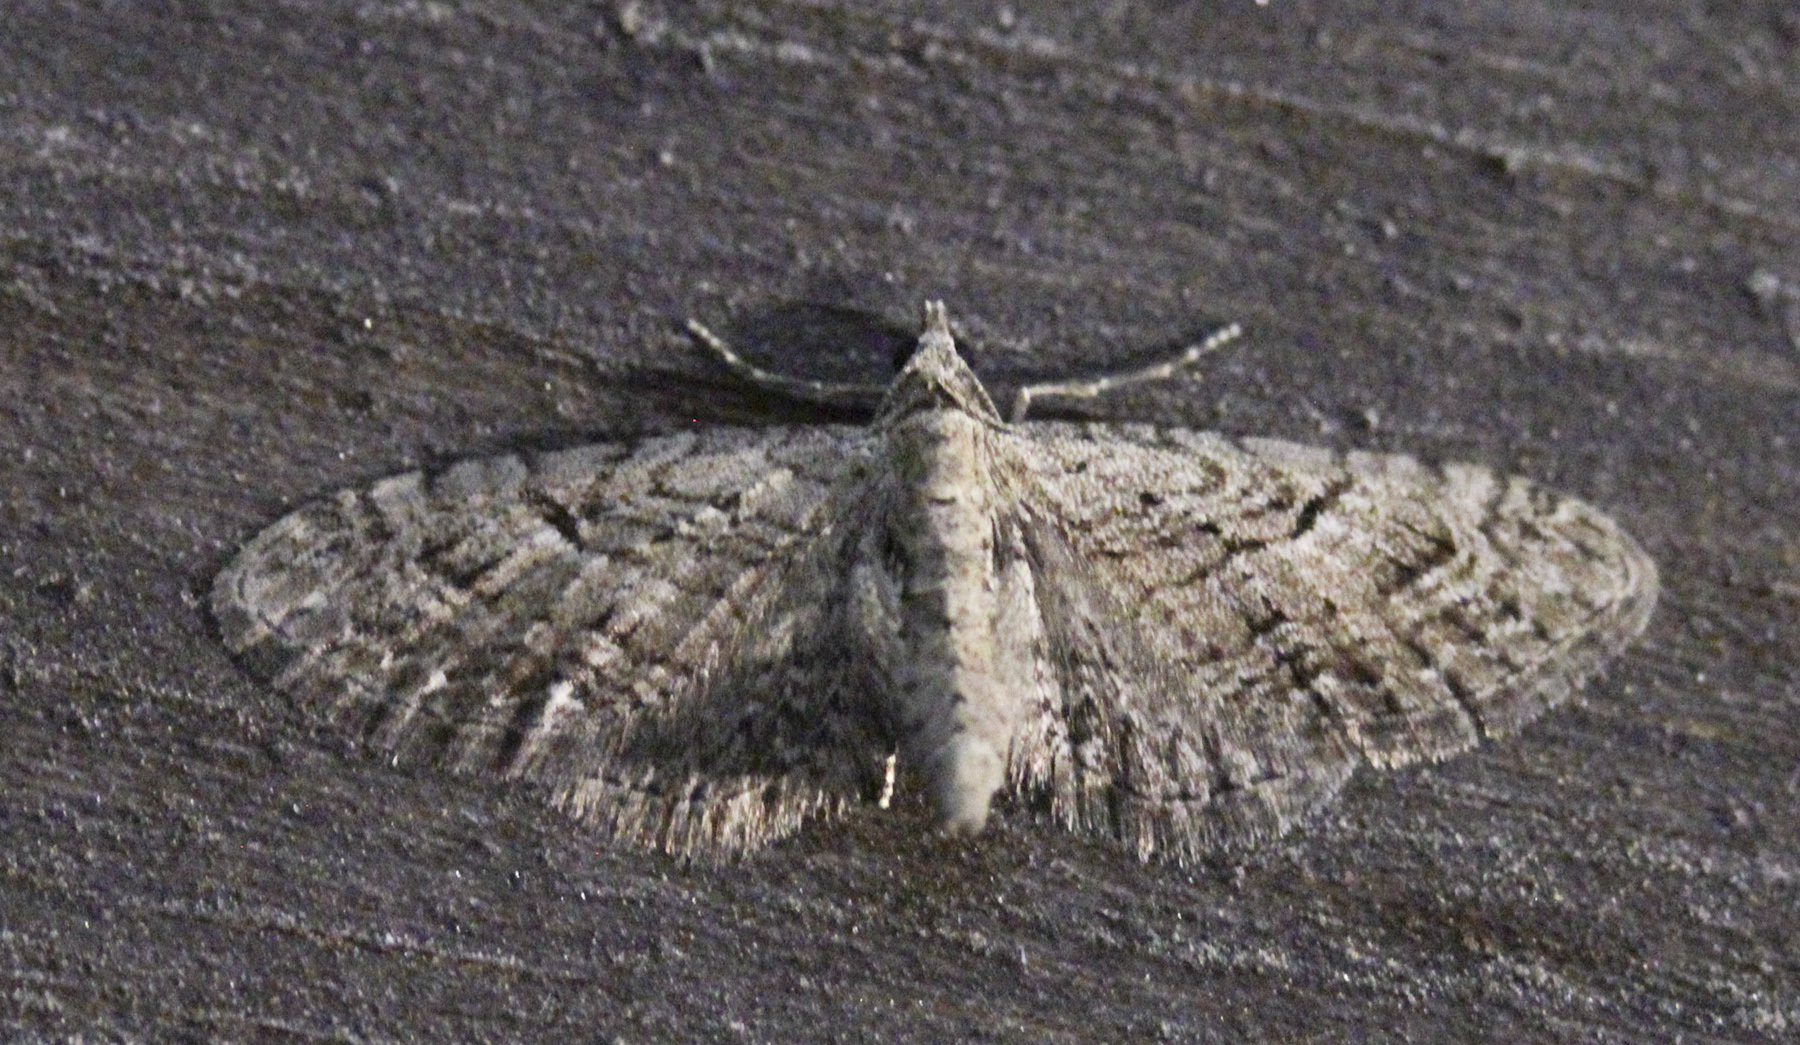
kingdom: Animalia
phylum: Arthropoda
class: Insecta
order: Lepidoptera
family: Geometridae
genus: Eupithecia
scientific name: Eupithecia pusillata
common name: Juniper pug
